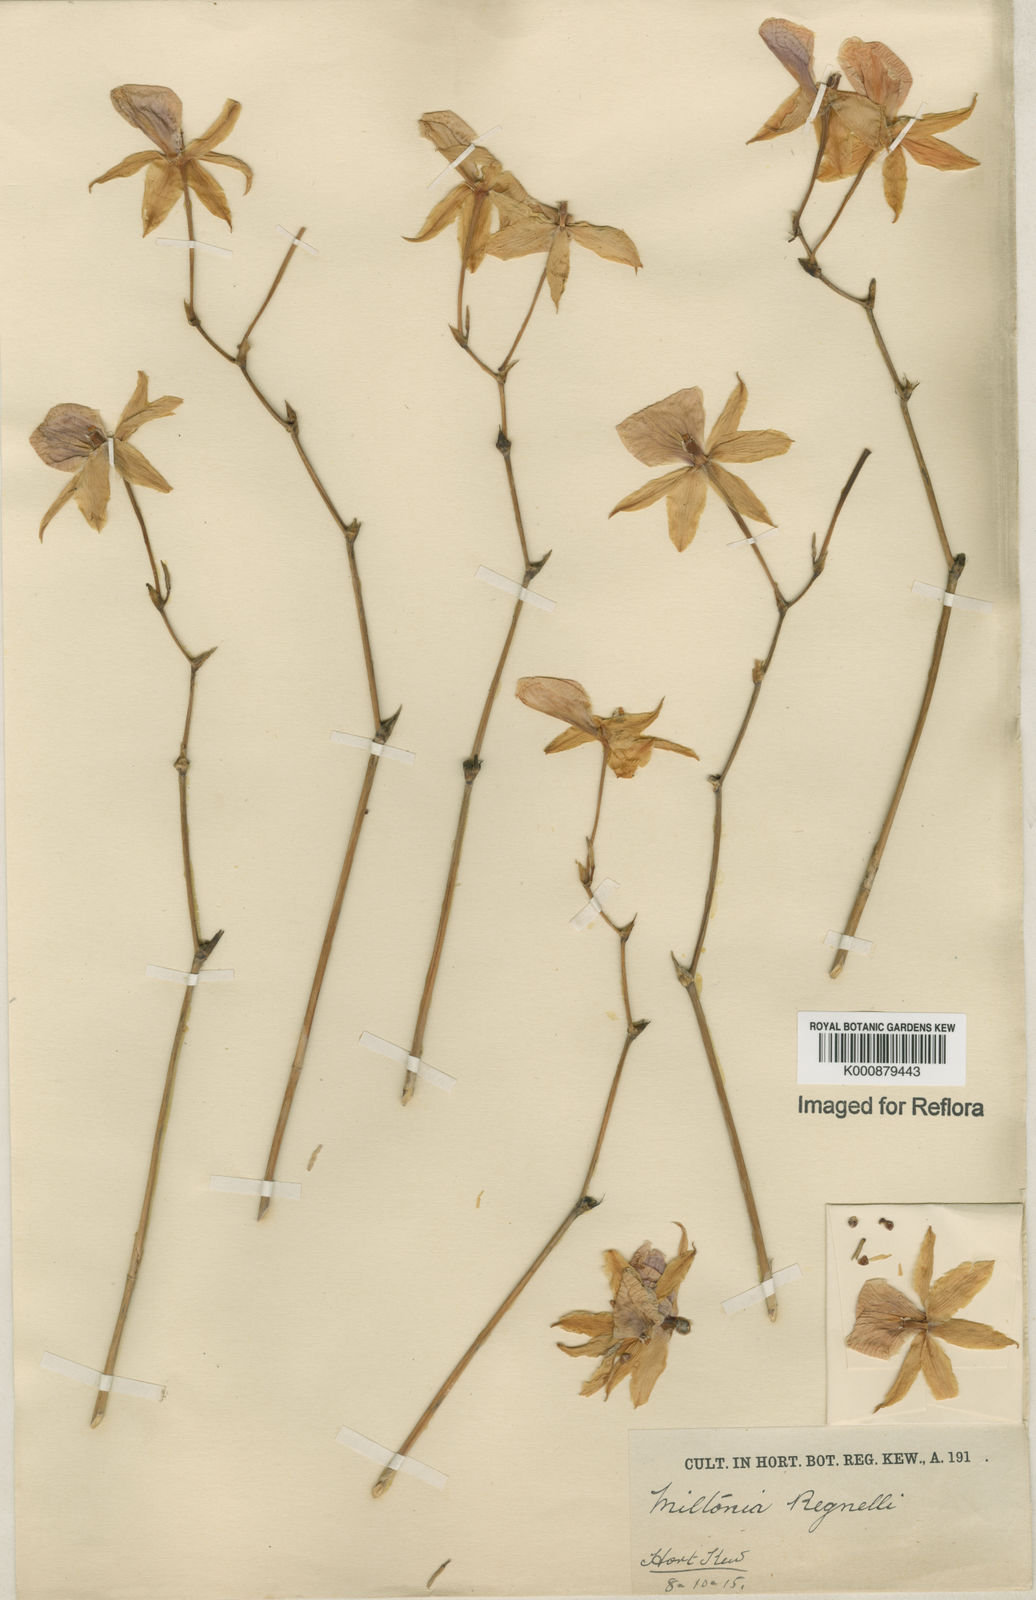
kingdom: Plantae
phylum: Tracheophyta
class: Liliopsida
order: Asparagales
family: Orchidaceae
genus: Miltonia
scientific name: Miltonia regnellii
